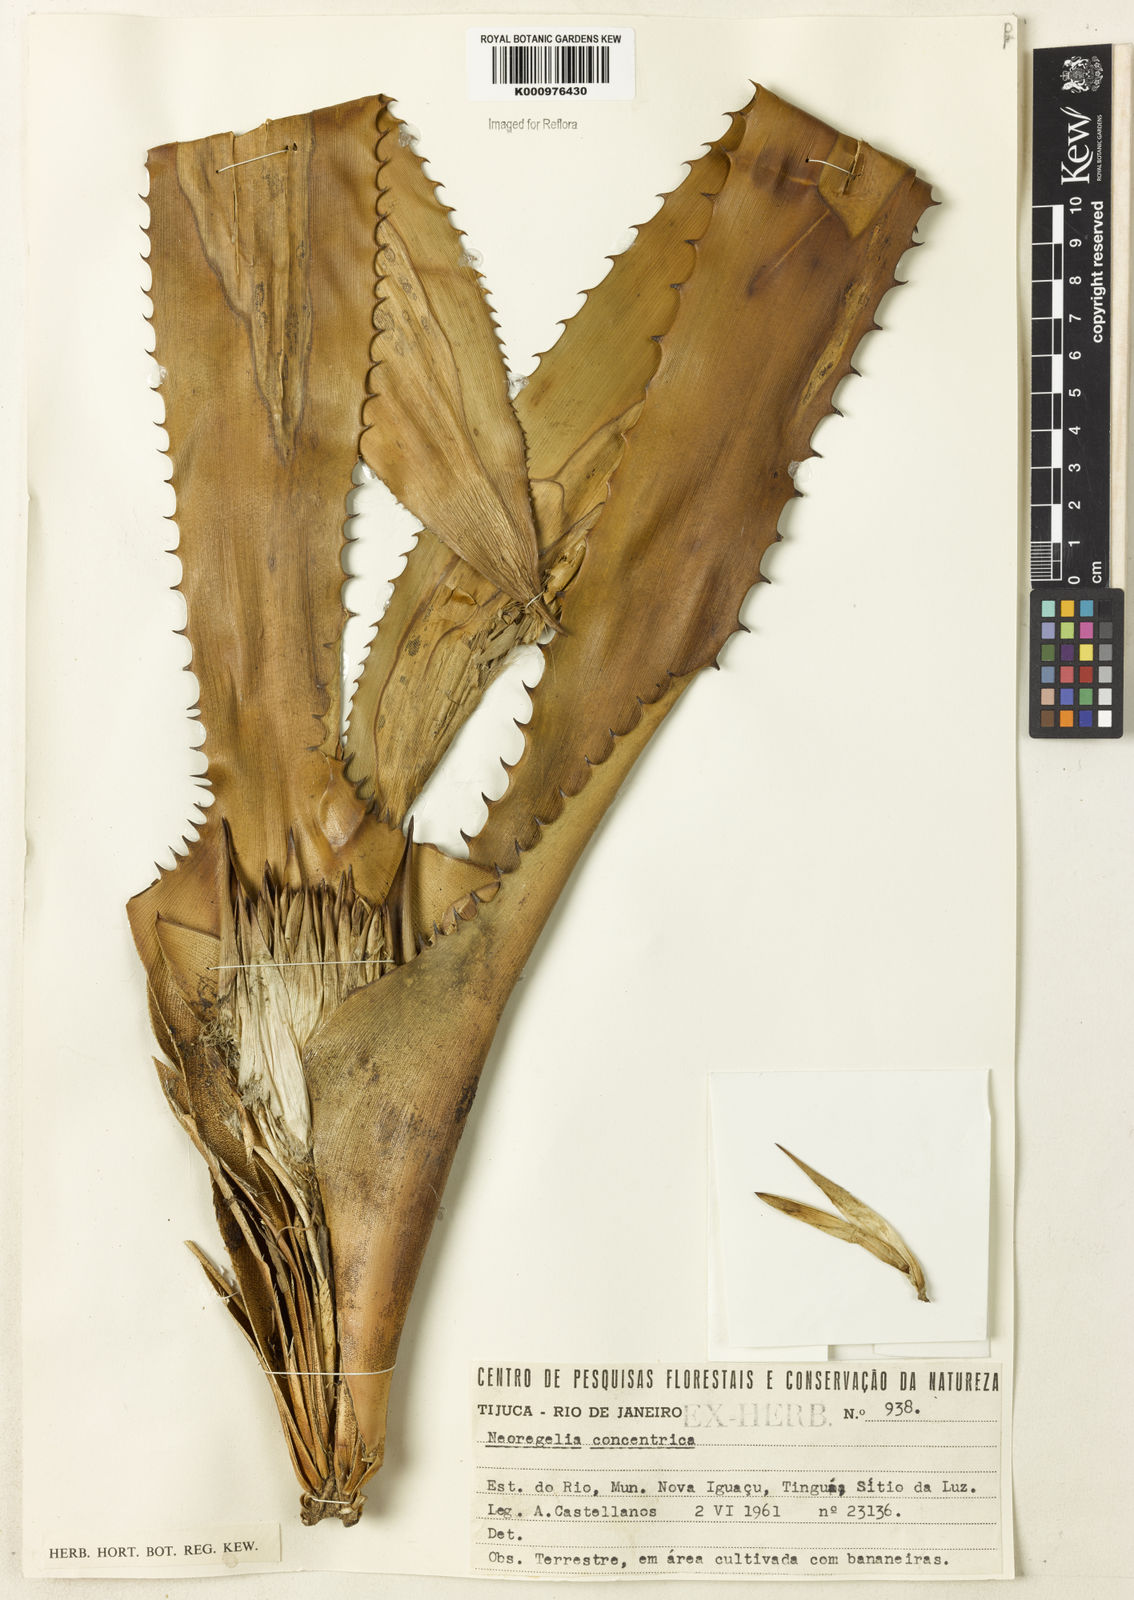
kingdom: Plantae
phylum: Tracheophyta
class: Liliopsida
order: Poales
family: Bromeliaceae
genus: Neoregelia
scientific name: Neoregelia concentrica
